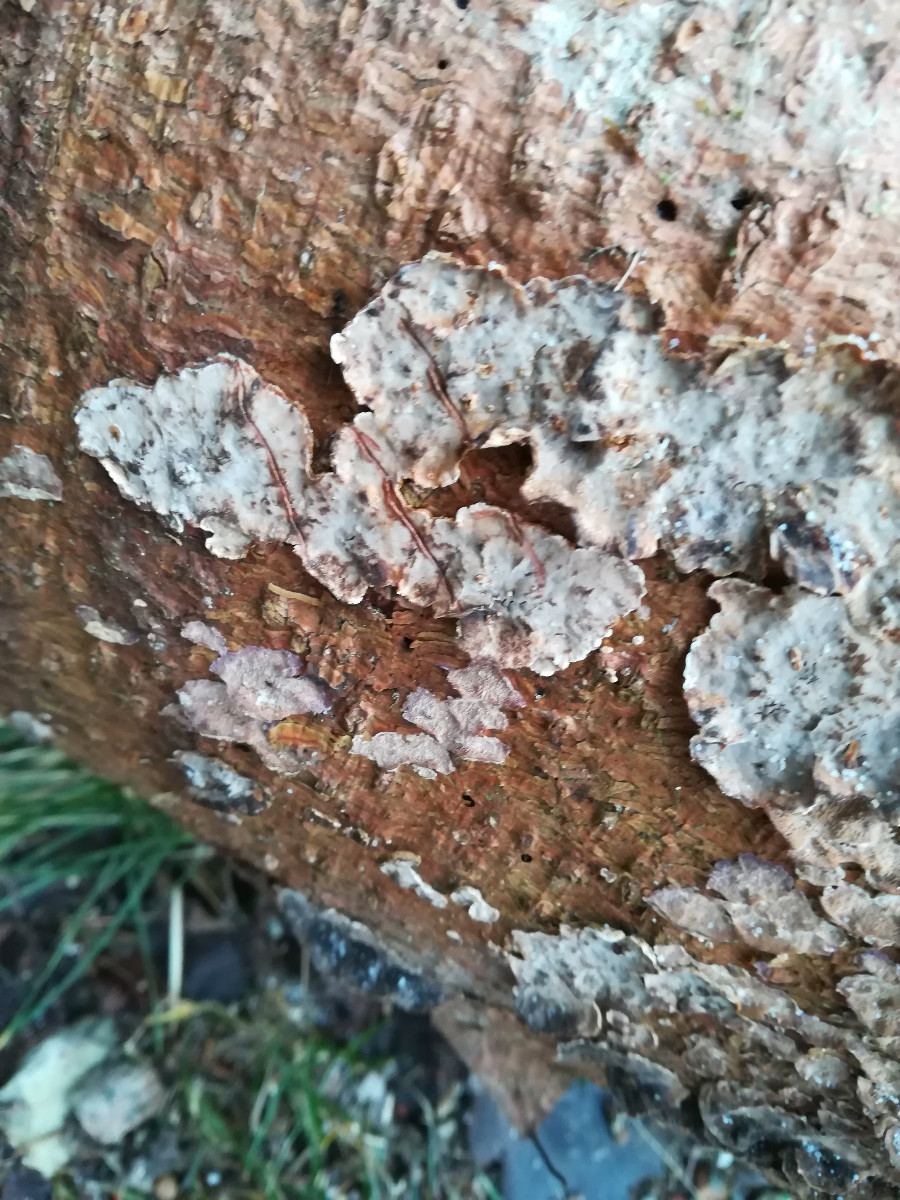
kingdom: Fungi
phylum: Basidiomycota
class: Agaricomycetes
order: Russulales
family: Stereaceae
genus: Stereum
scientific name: Stereum sanguinolentum
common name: blødende lædersvamp
